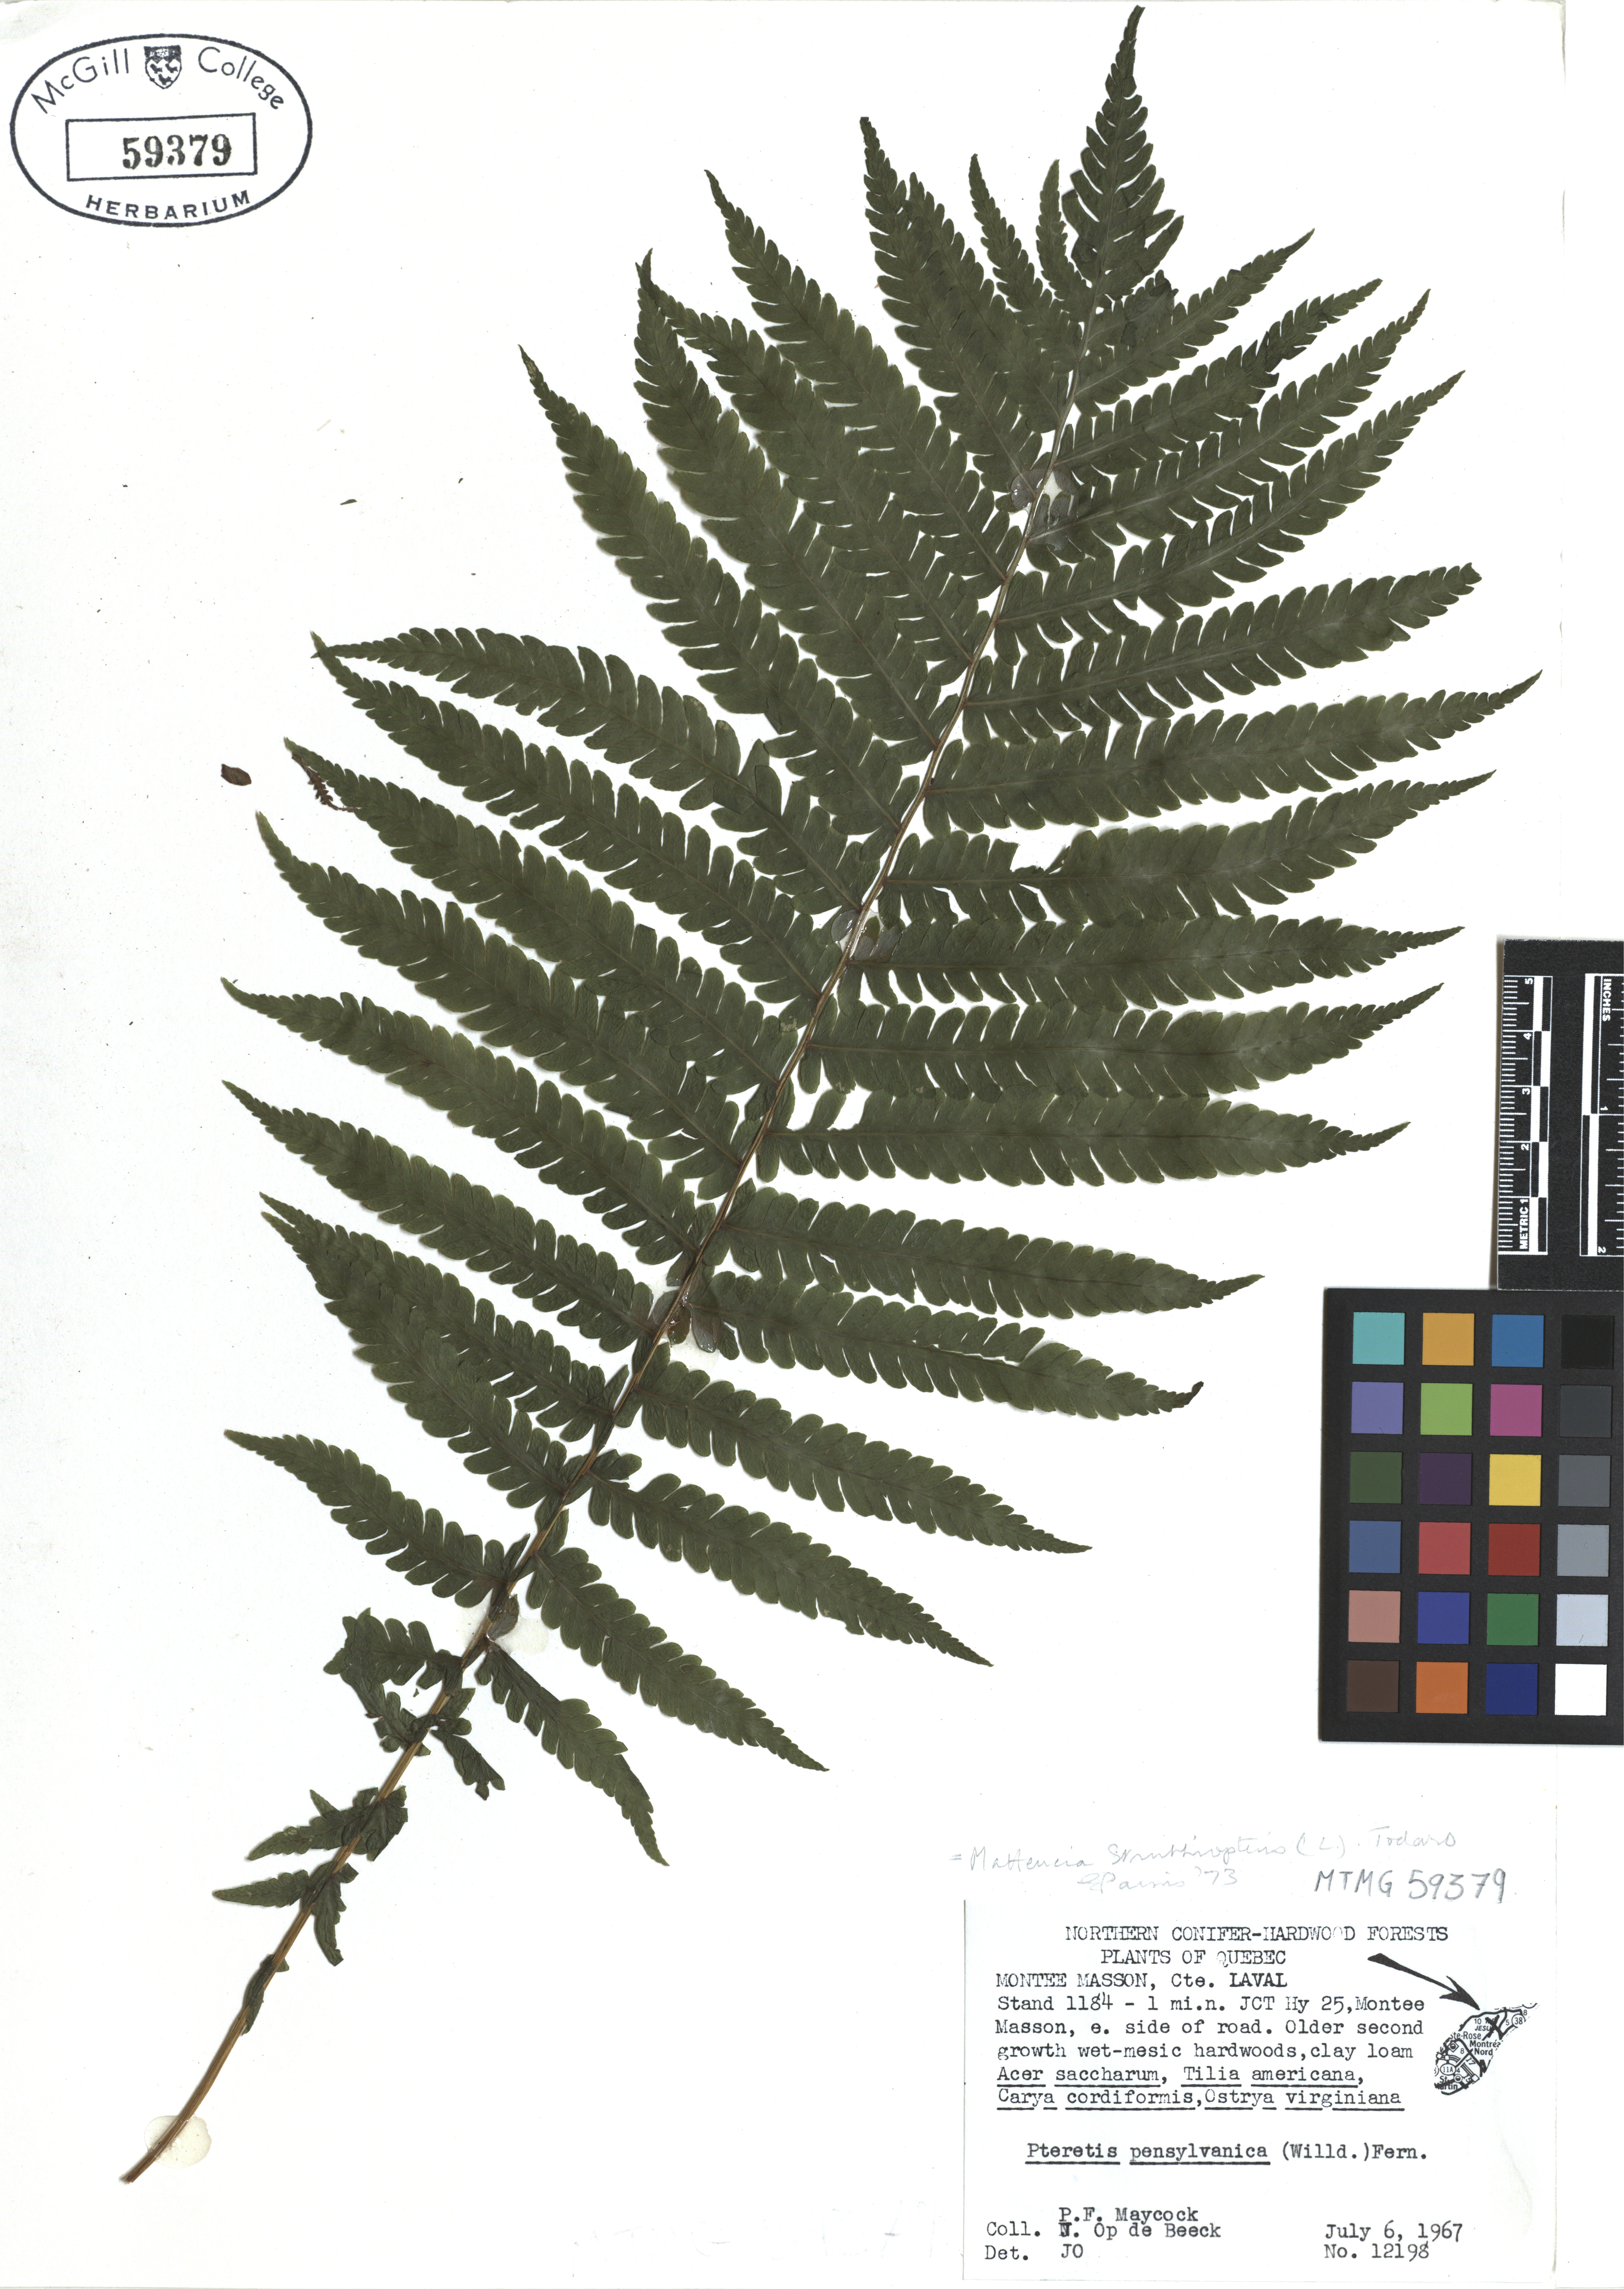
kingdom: Plantae
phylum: Tracheophyta
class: Polypodiopsida
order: Polypodiales
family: Onocleaceae
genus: Matteuccia
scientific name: Matteuccia struthiopteris
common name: Ostrich fern
